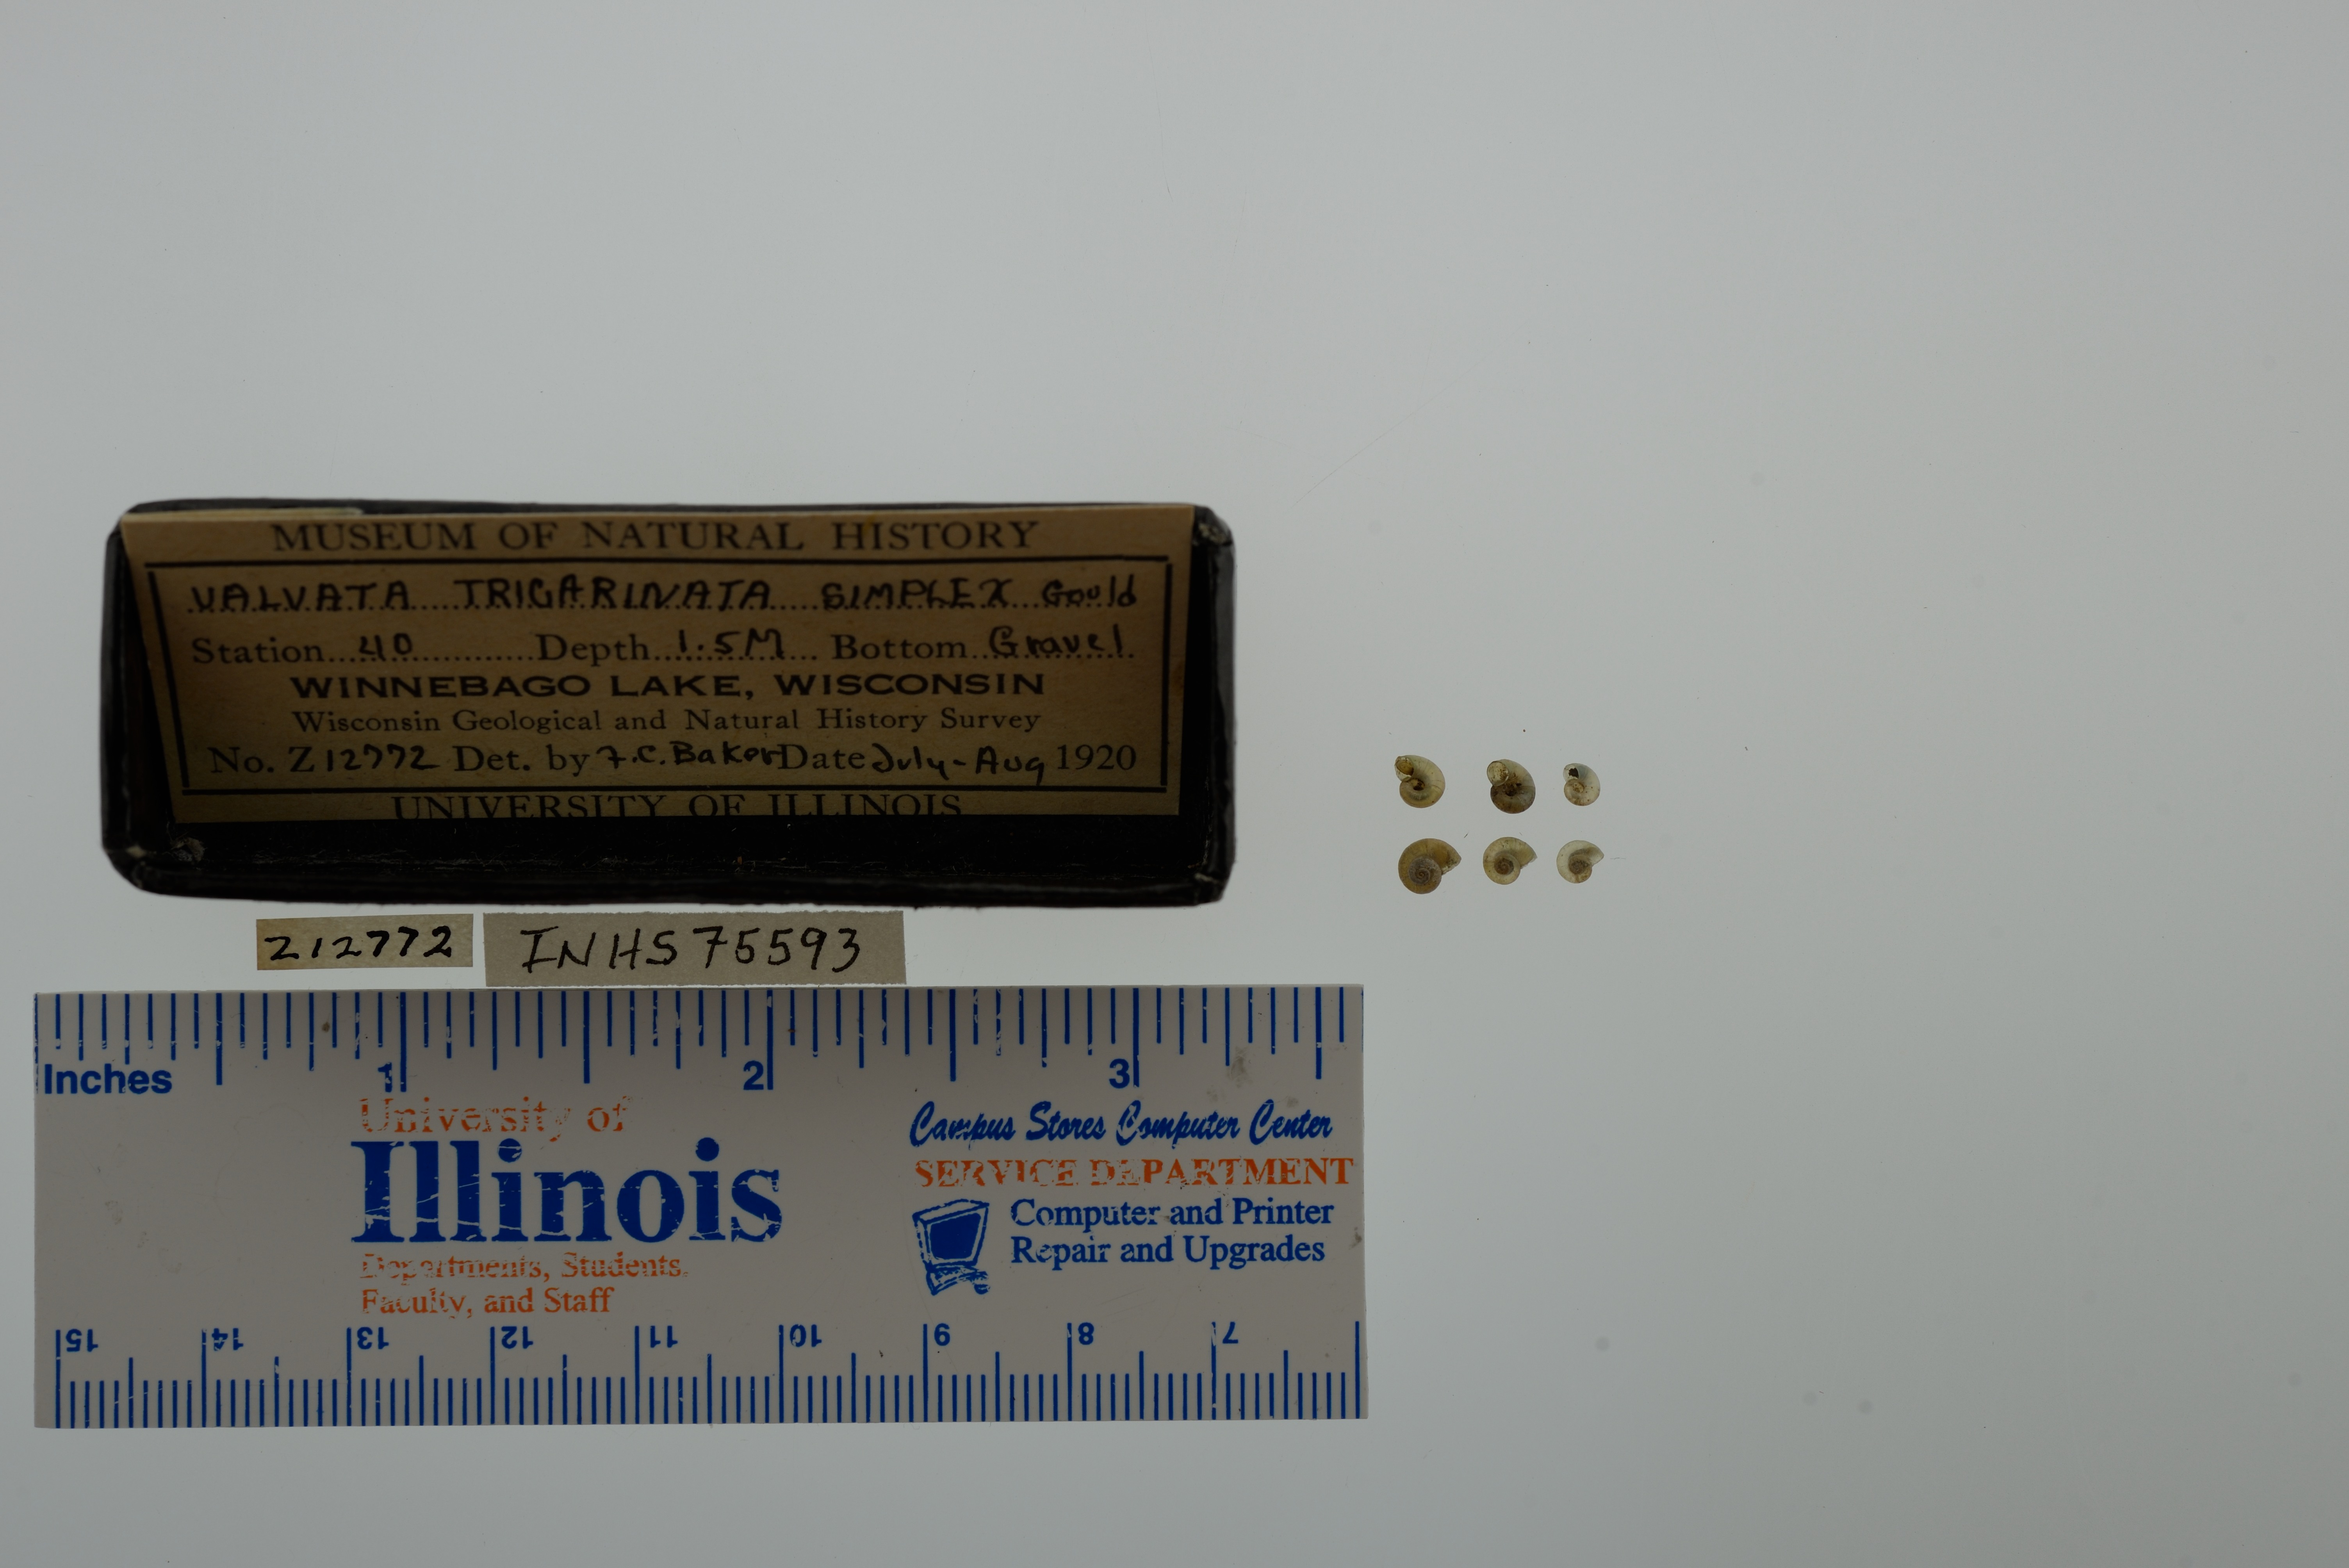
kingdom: Animalia
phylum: Mollusca
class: Gastropoda
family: Valvatidae
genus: Valvata
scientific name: Valvata tricarinata
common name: Three-ridge valvata
